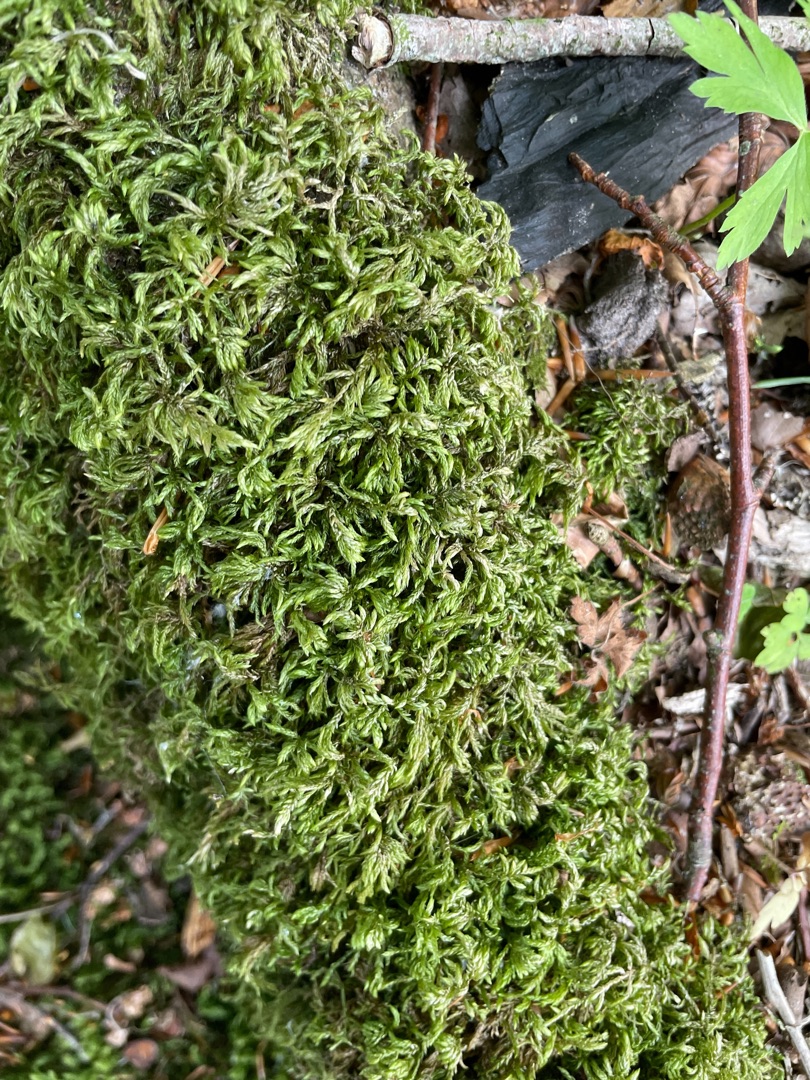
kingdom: Plantae
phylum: Bryophyta
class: Bryopsida
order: Hypnales
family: Lembophyllaceae
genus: Isothecium
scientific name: Isothecium alopecuroides
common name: Stor stammemos
